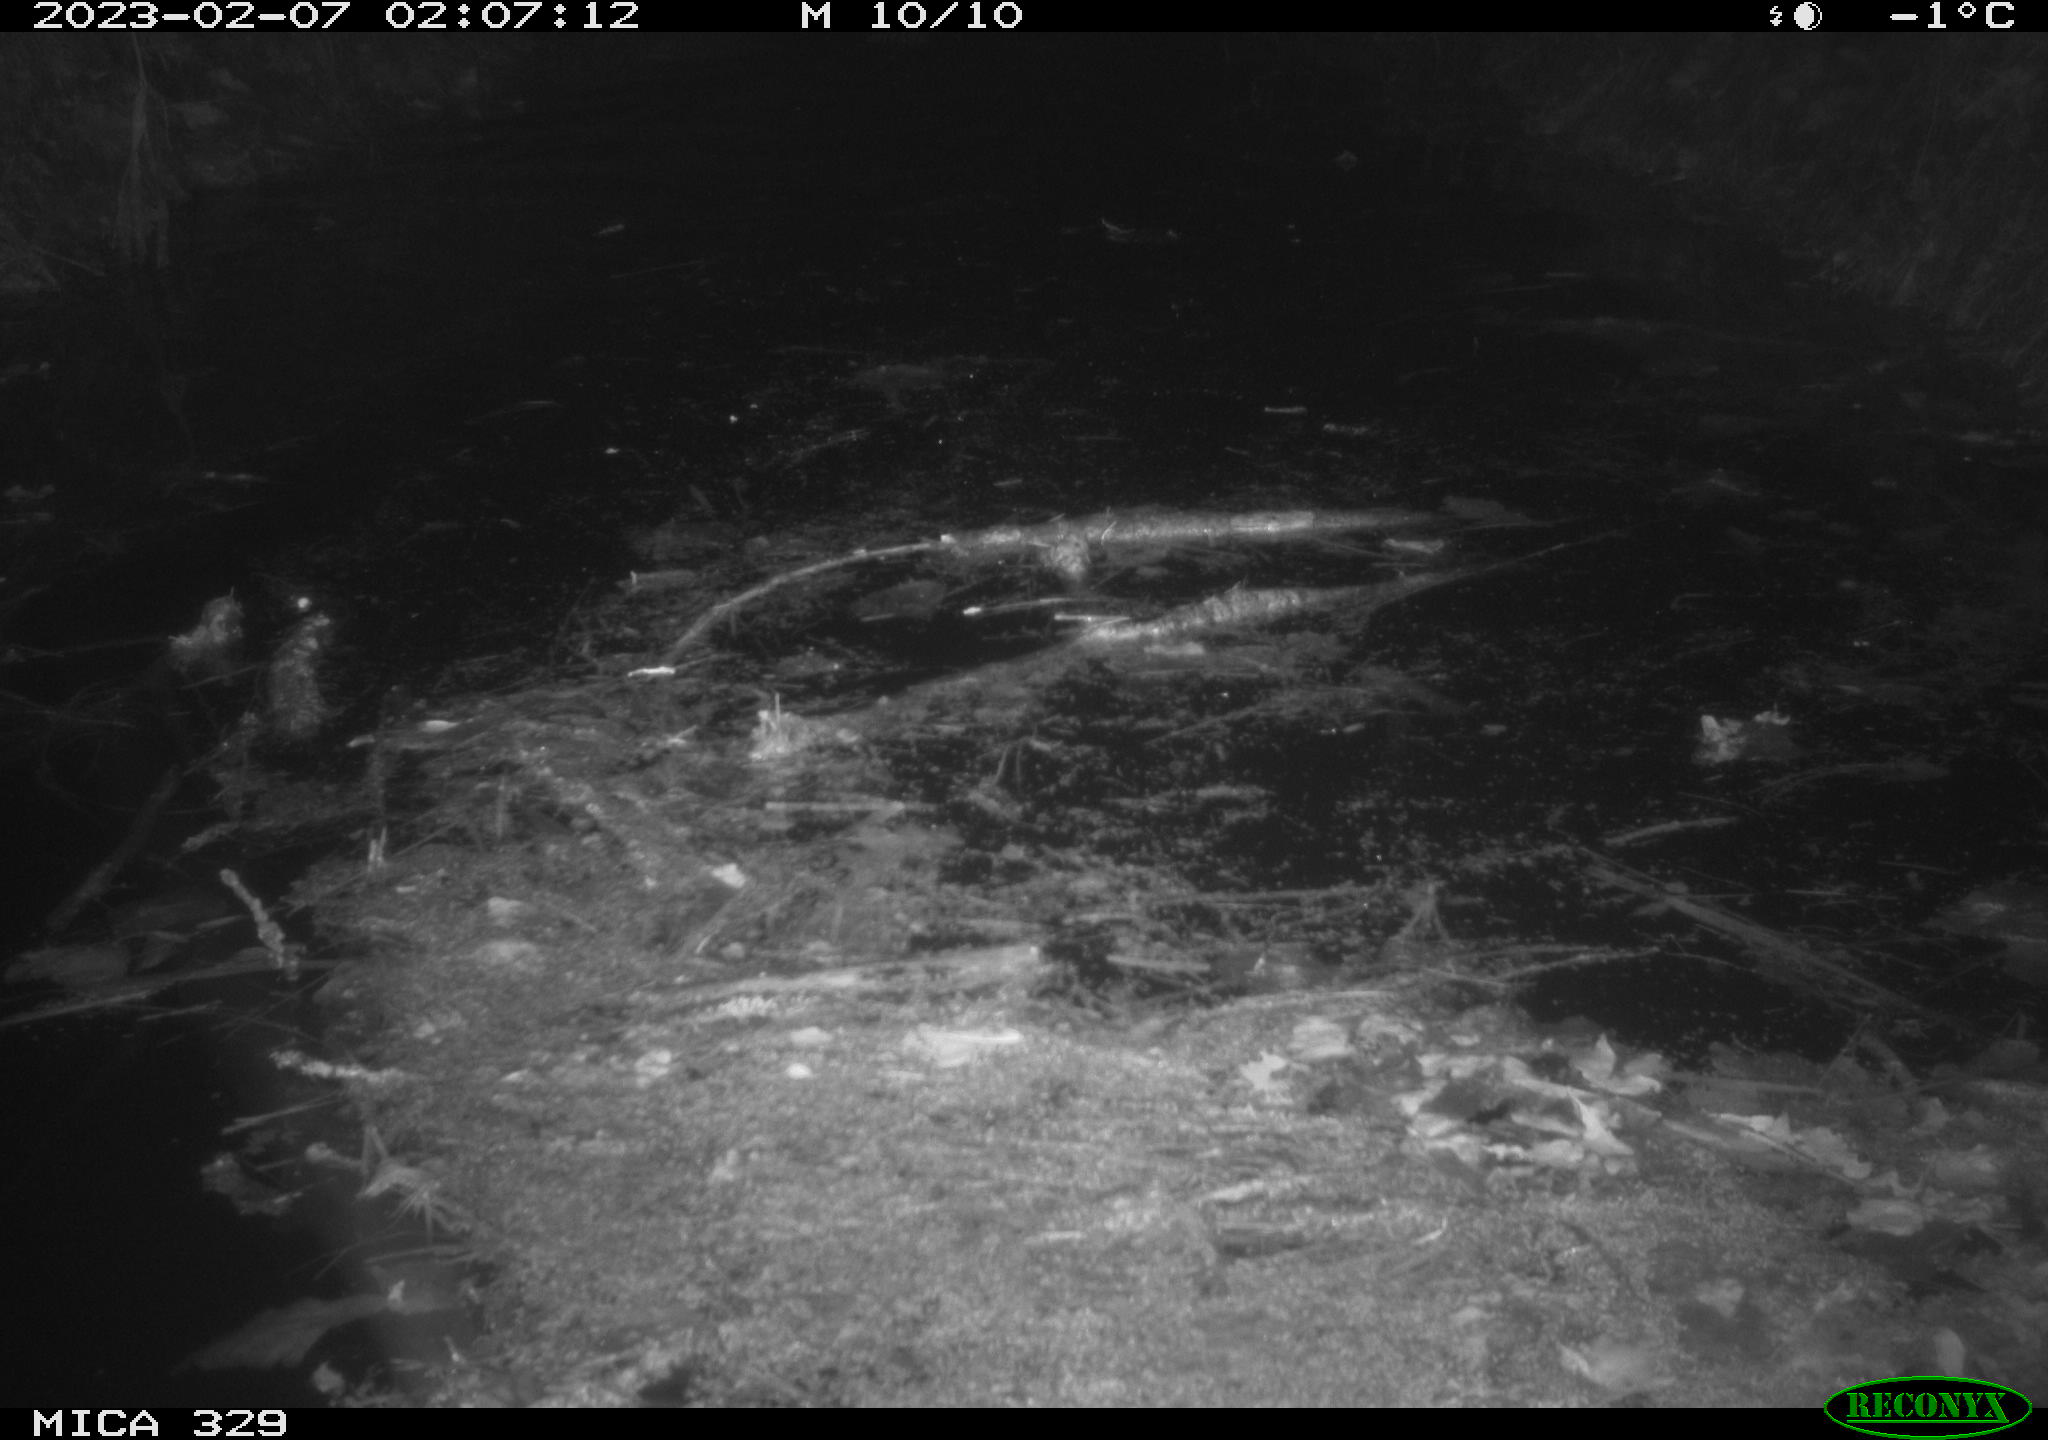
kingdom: Animalia
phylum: Chordata
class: Mammalia
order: Rodentia
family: Cricetidae
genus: Ondatra
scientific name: Ondatra zibethicus
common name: Muskrat
